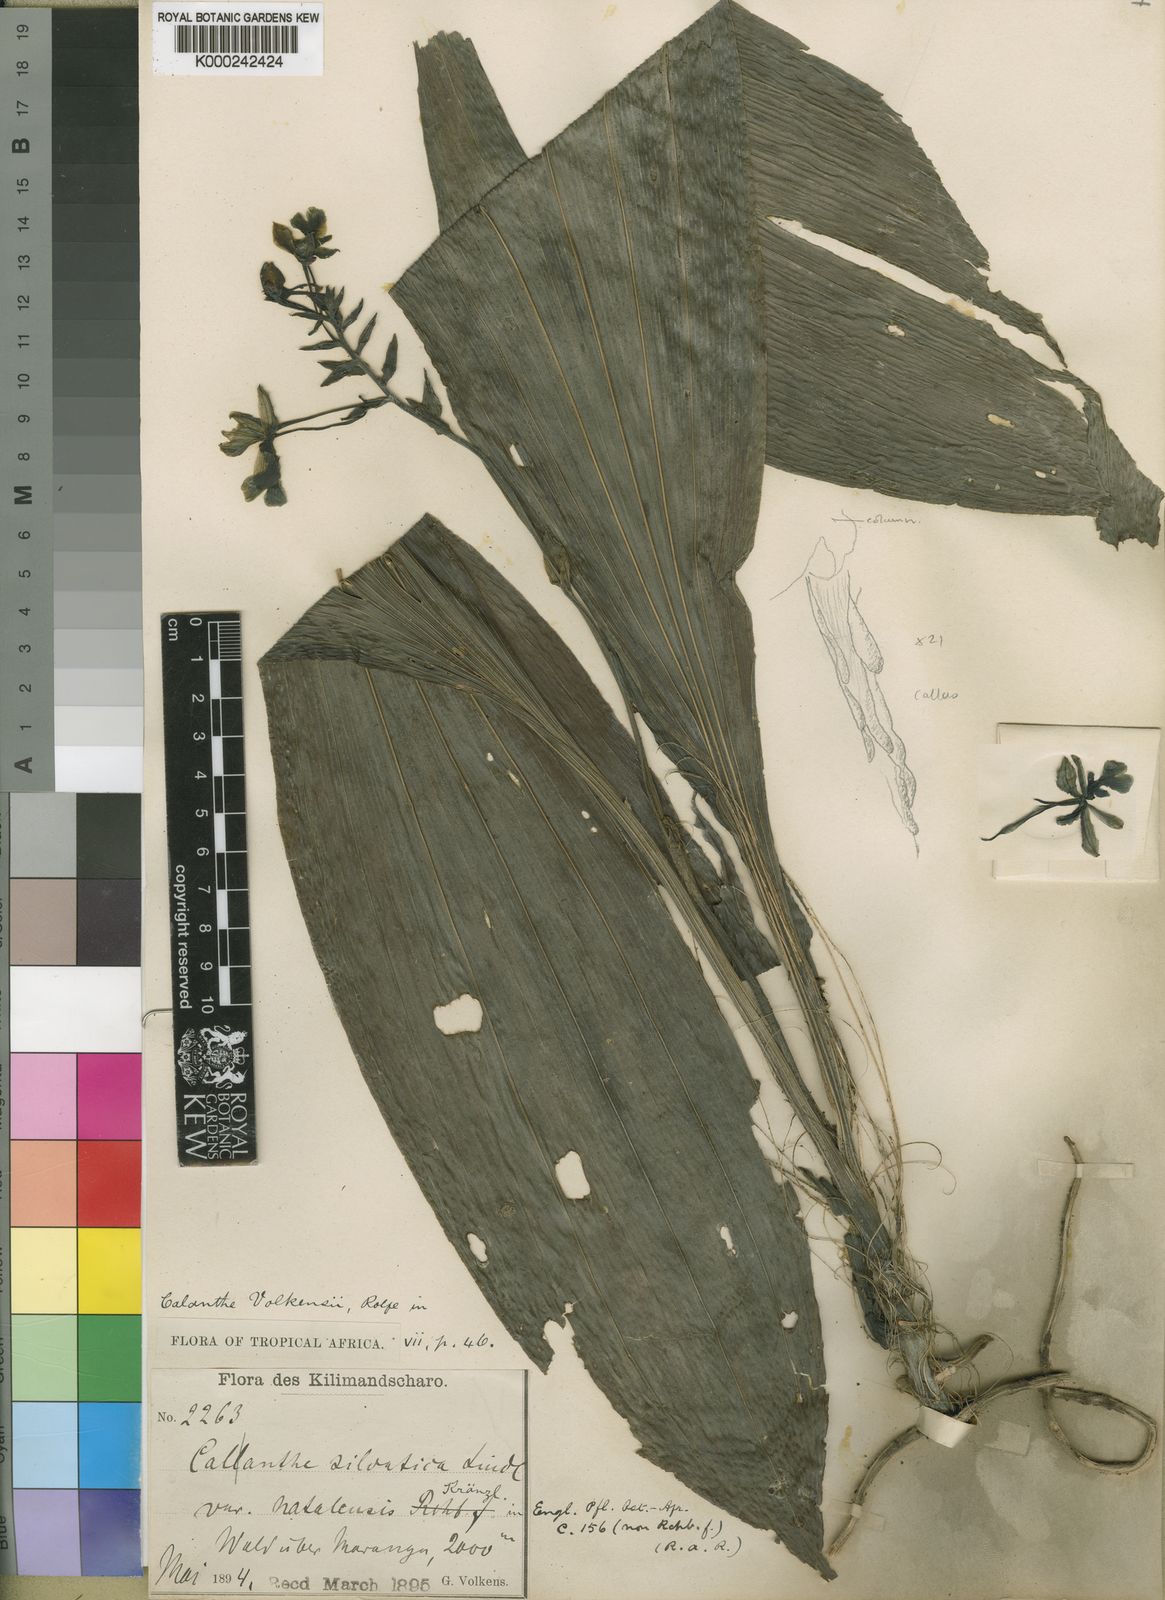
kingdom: Plantae
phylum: Tracheophyta
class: Liliopsida
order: Asparagales
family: Orchidaceae
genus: Calanthe
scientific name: Calanthe sylvatica
